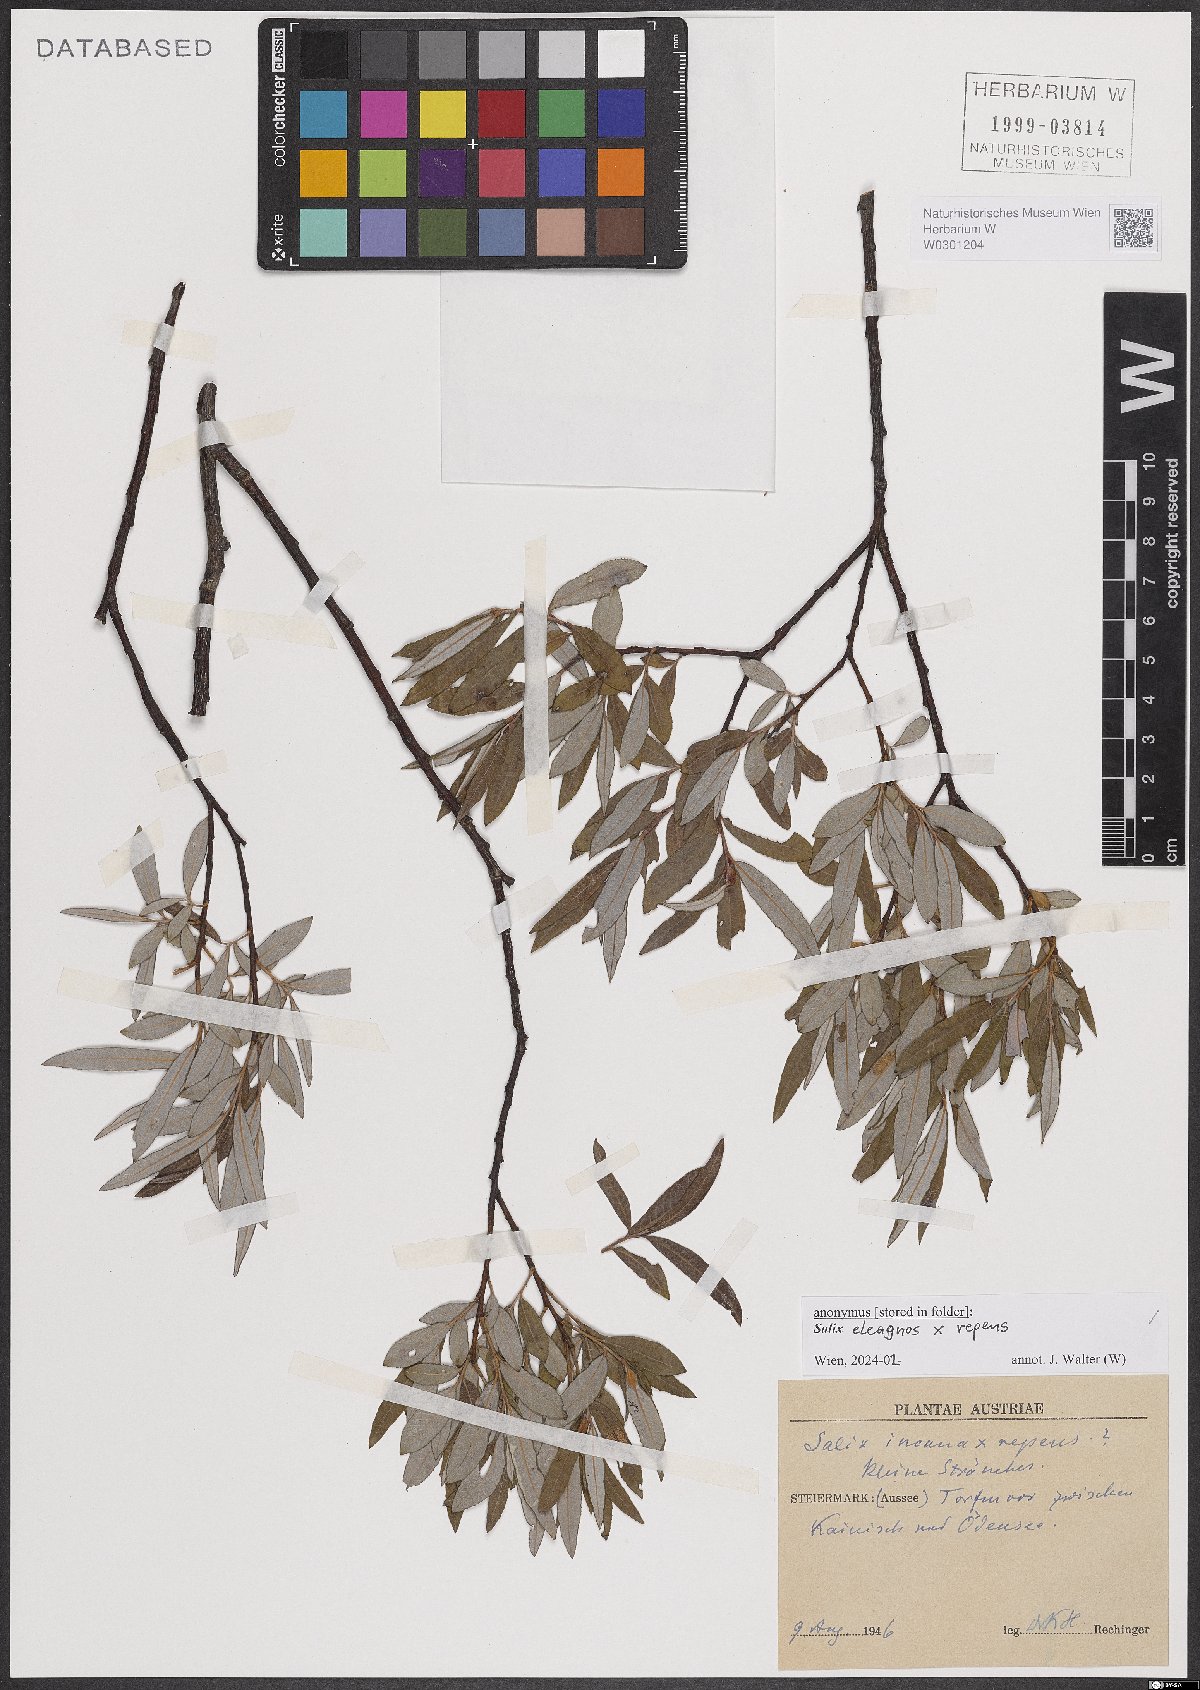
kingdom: Plantae
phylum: Tracheophyta
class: Magnoliopsida
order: Malpighiales
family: Salicaceae
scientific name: Salicaceae
